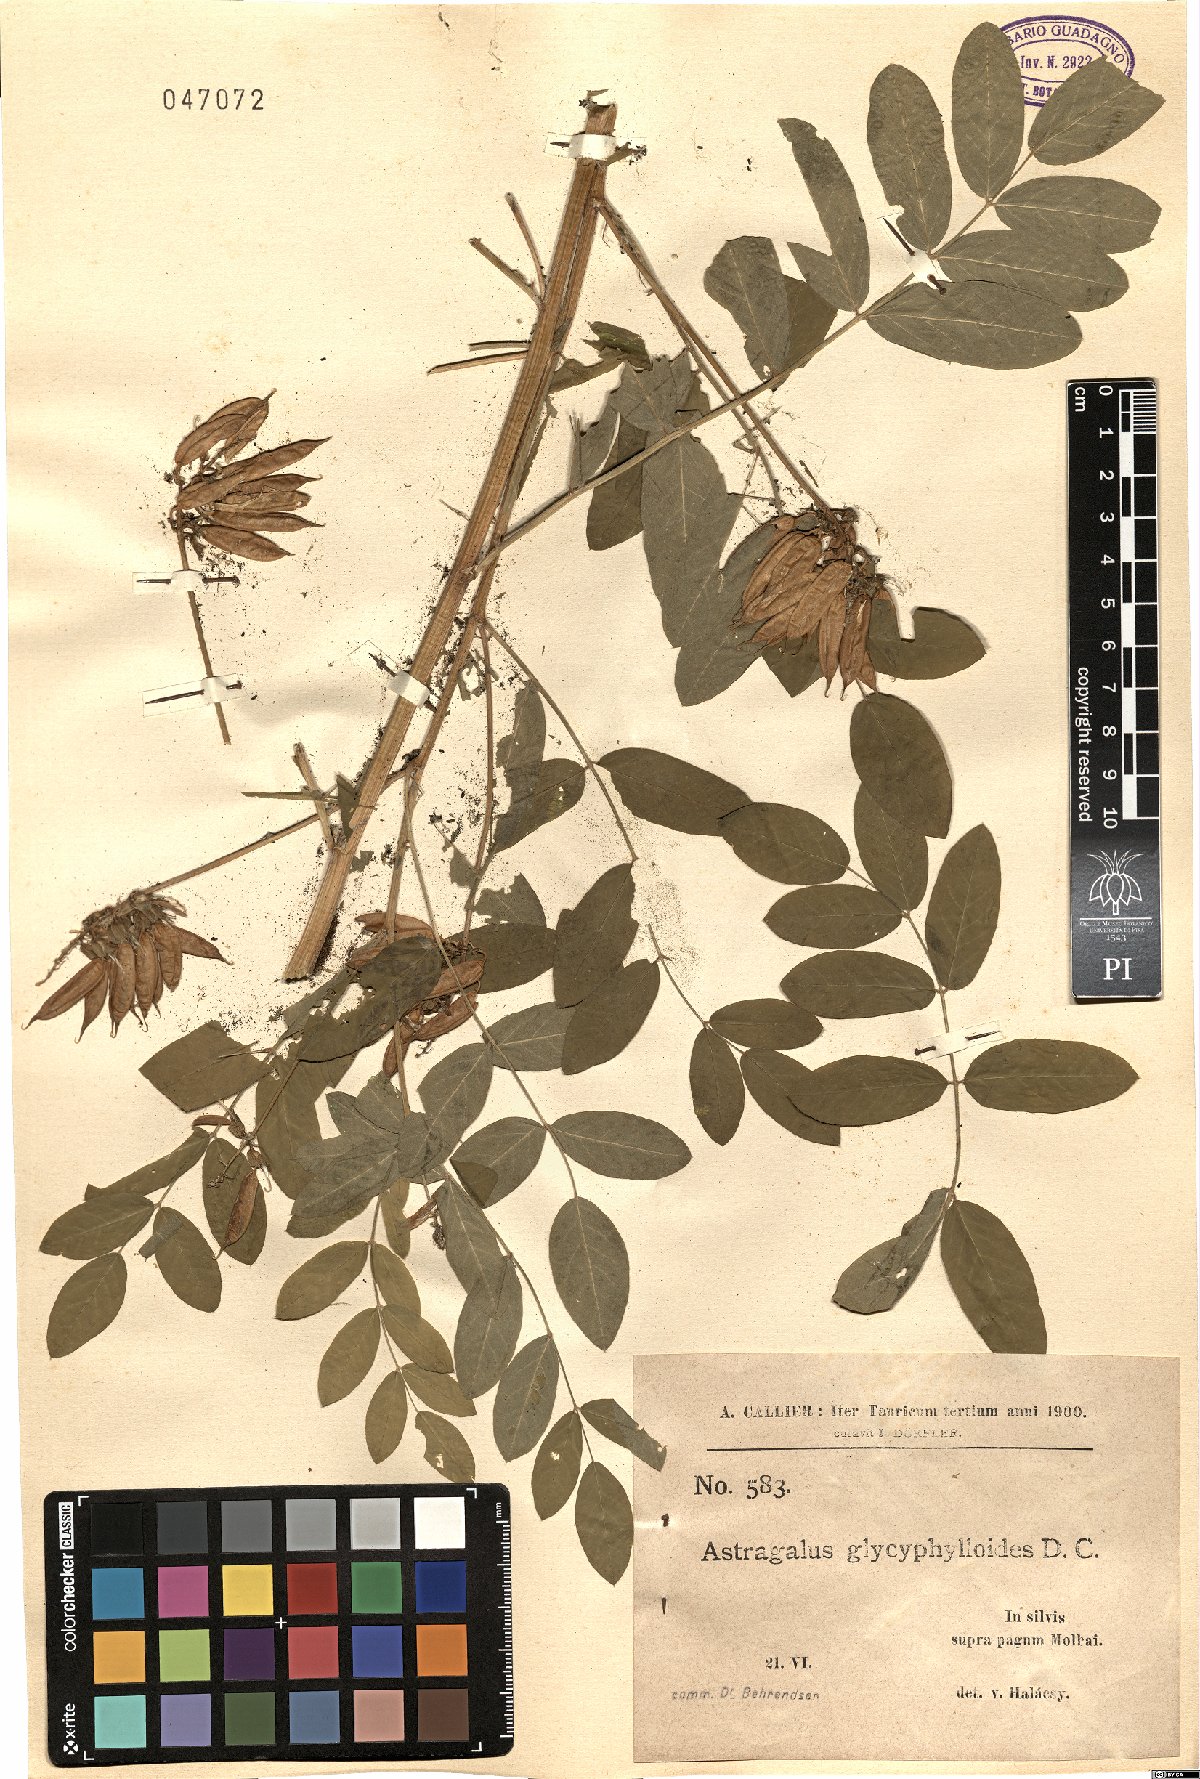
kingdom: Plantae
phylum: Tracheophyta
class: Magnoliopsida
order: Fabales
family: Fabaceae
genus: Astragalus
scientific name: Astragalus glycyphylloides
